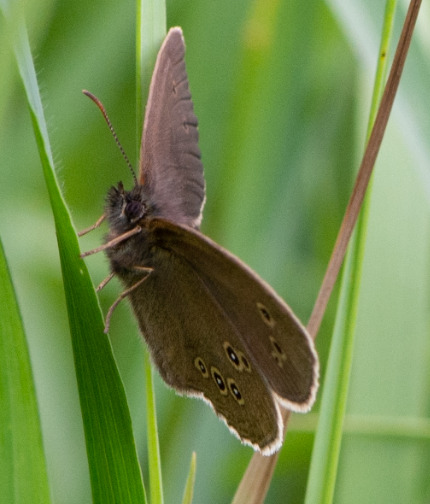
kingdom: Animalia
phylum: Arthropoda
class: Insecta
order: Lepidoptera
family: Nymphalidae
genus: Aphantopus
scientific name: Aphantopus hyperantus
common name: Engrandøje
